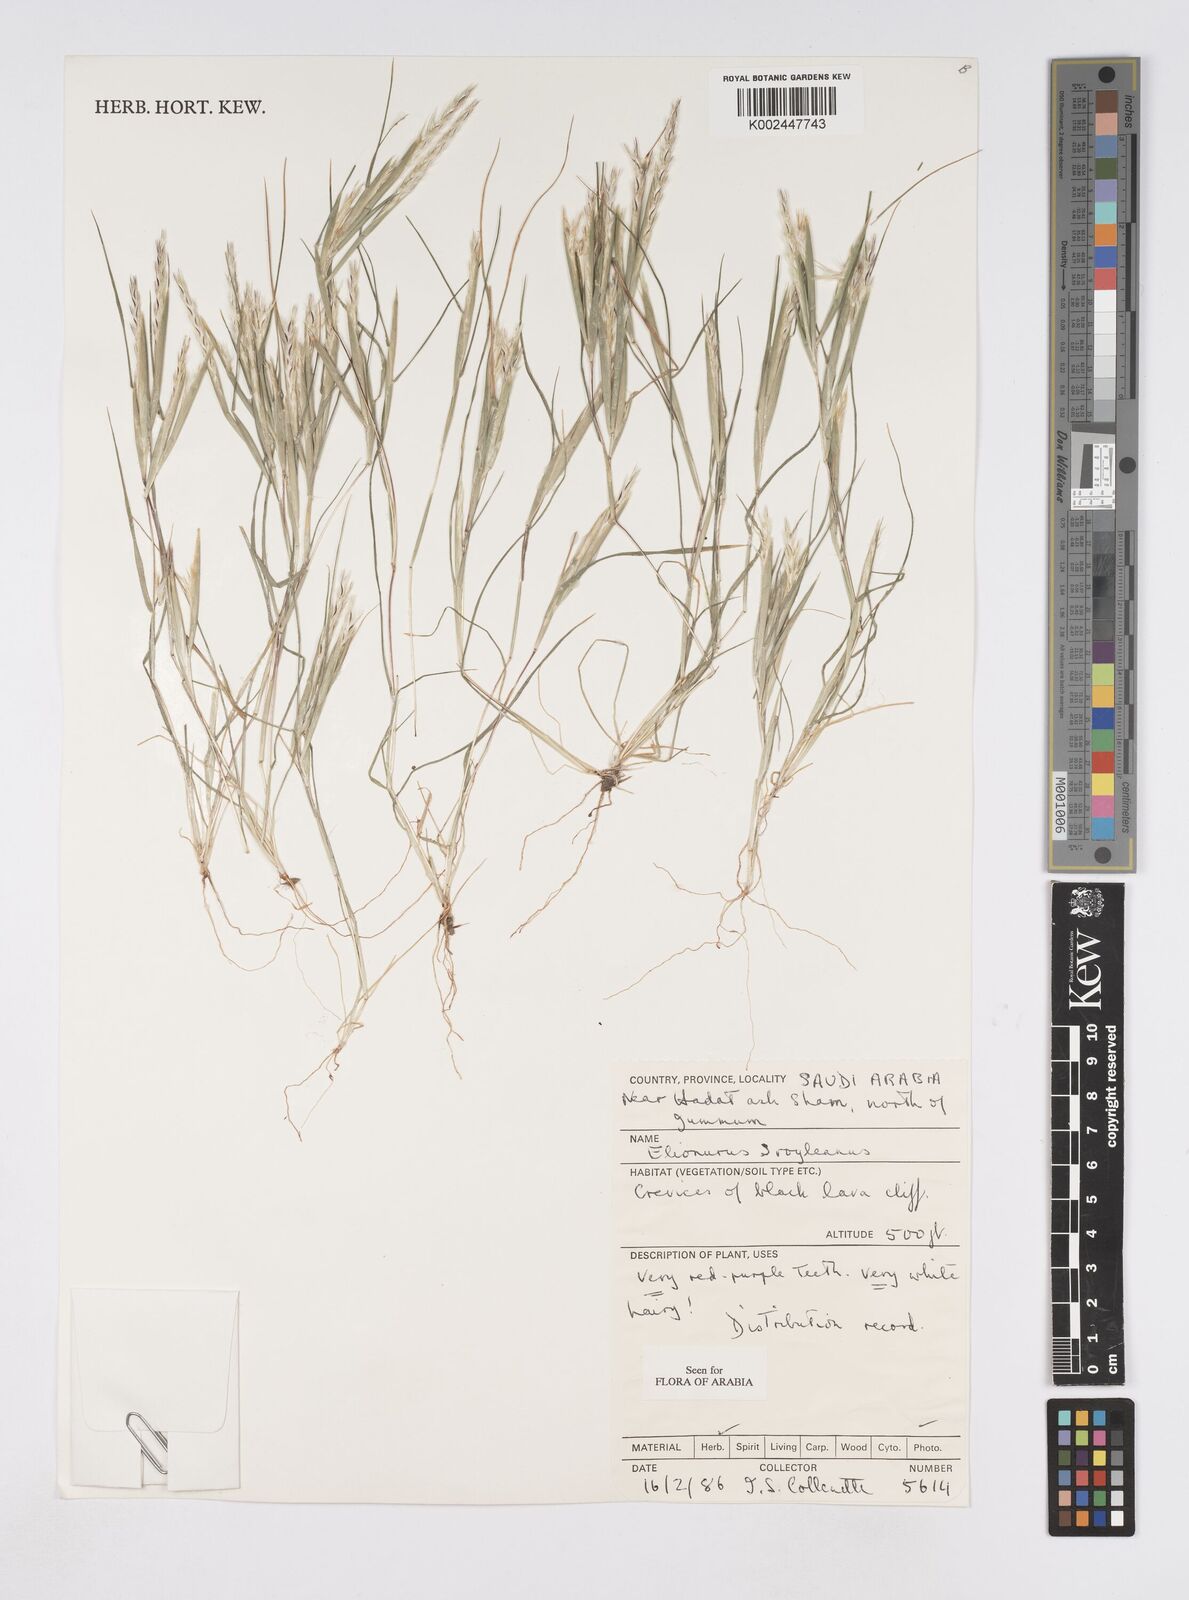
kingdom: Plantae
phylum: Tracheophyta
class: Liliopsida
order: Poales
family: Poaceae
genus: Elionurus
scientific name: Elionurus royleanus
